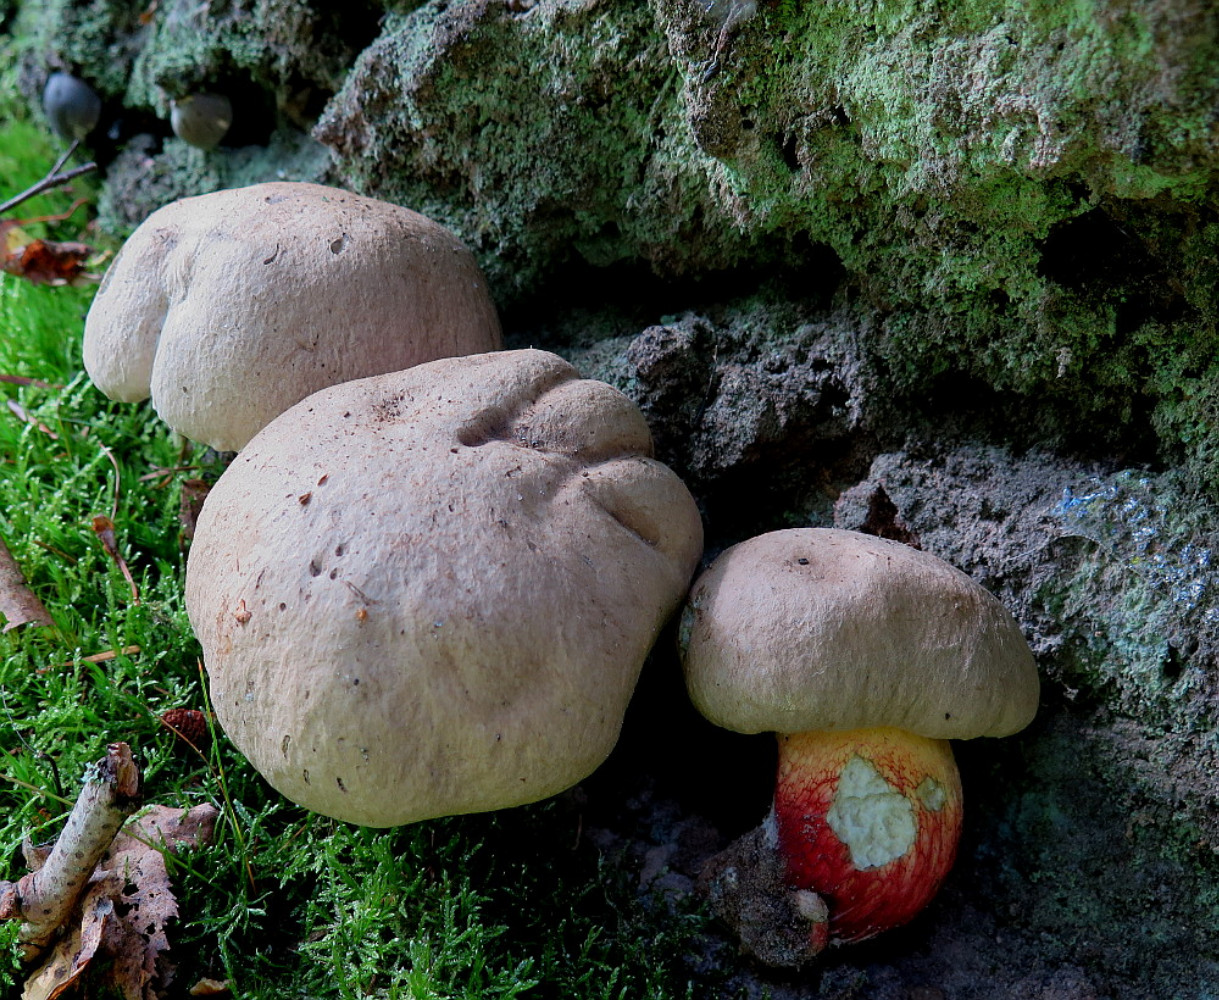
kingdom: Fungi
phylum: Basidiomycota
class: Agaricomycetes
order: Boletales
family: Boletaceae
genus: Caloboletus
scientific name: Caloboletus calopus
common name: skønfodet rørhat
